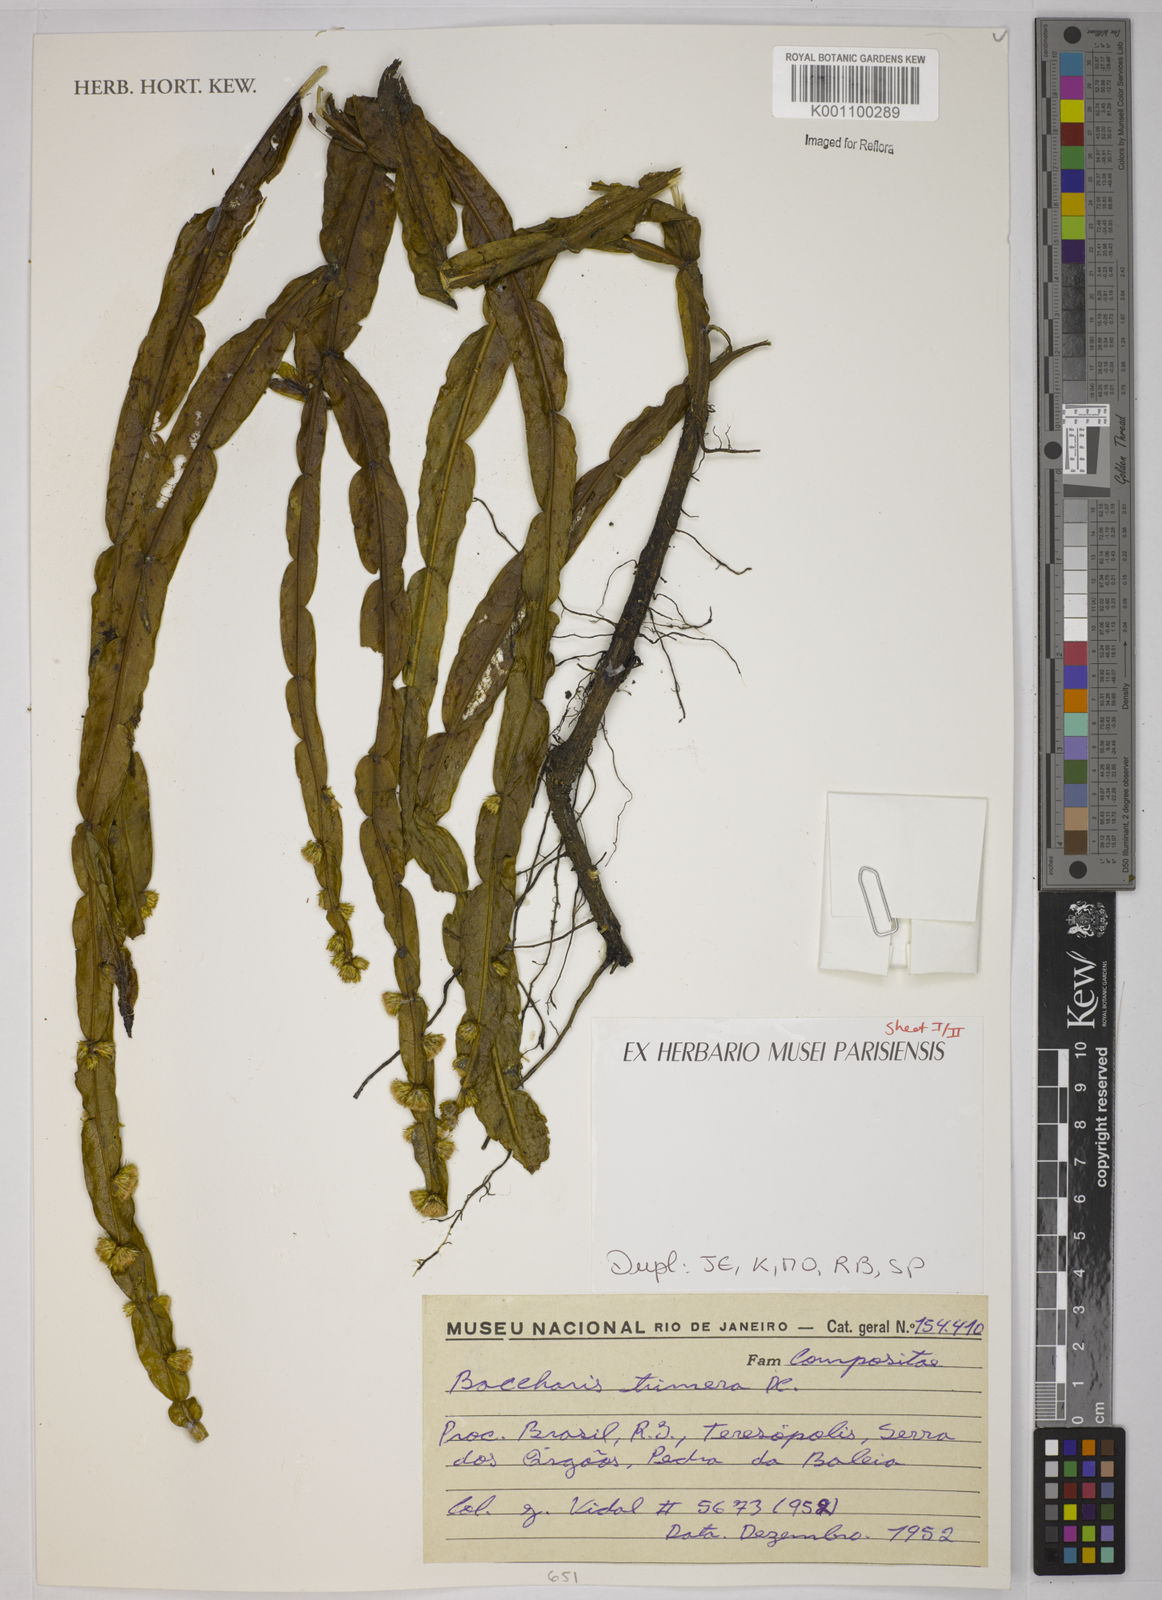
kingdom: Plantae
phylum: Tracheophyta
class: Magnoliopsida
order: Asterales
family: Asteraceae
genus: Baccharis
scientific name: Baccharis trimera
